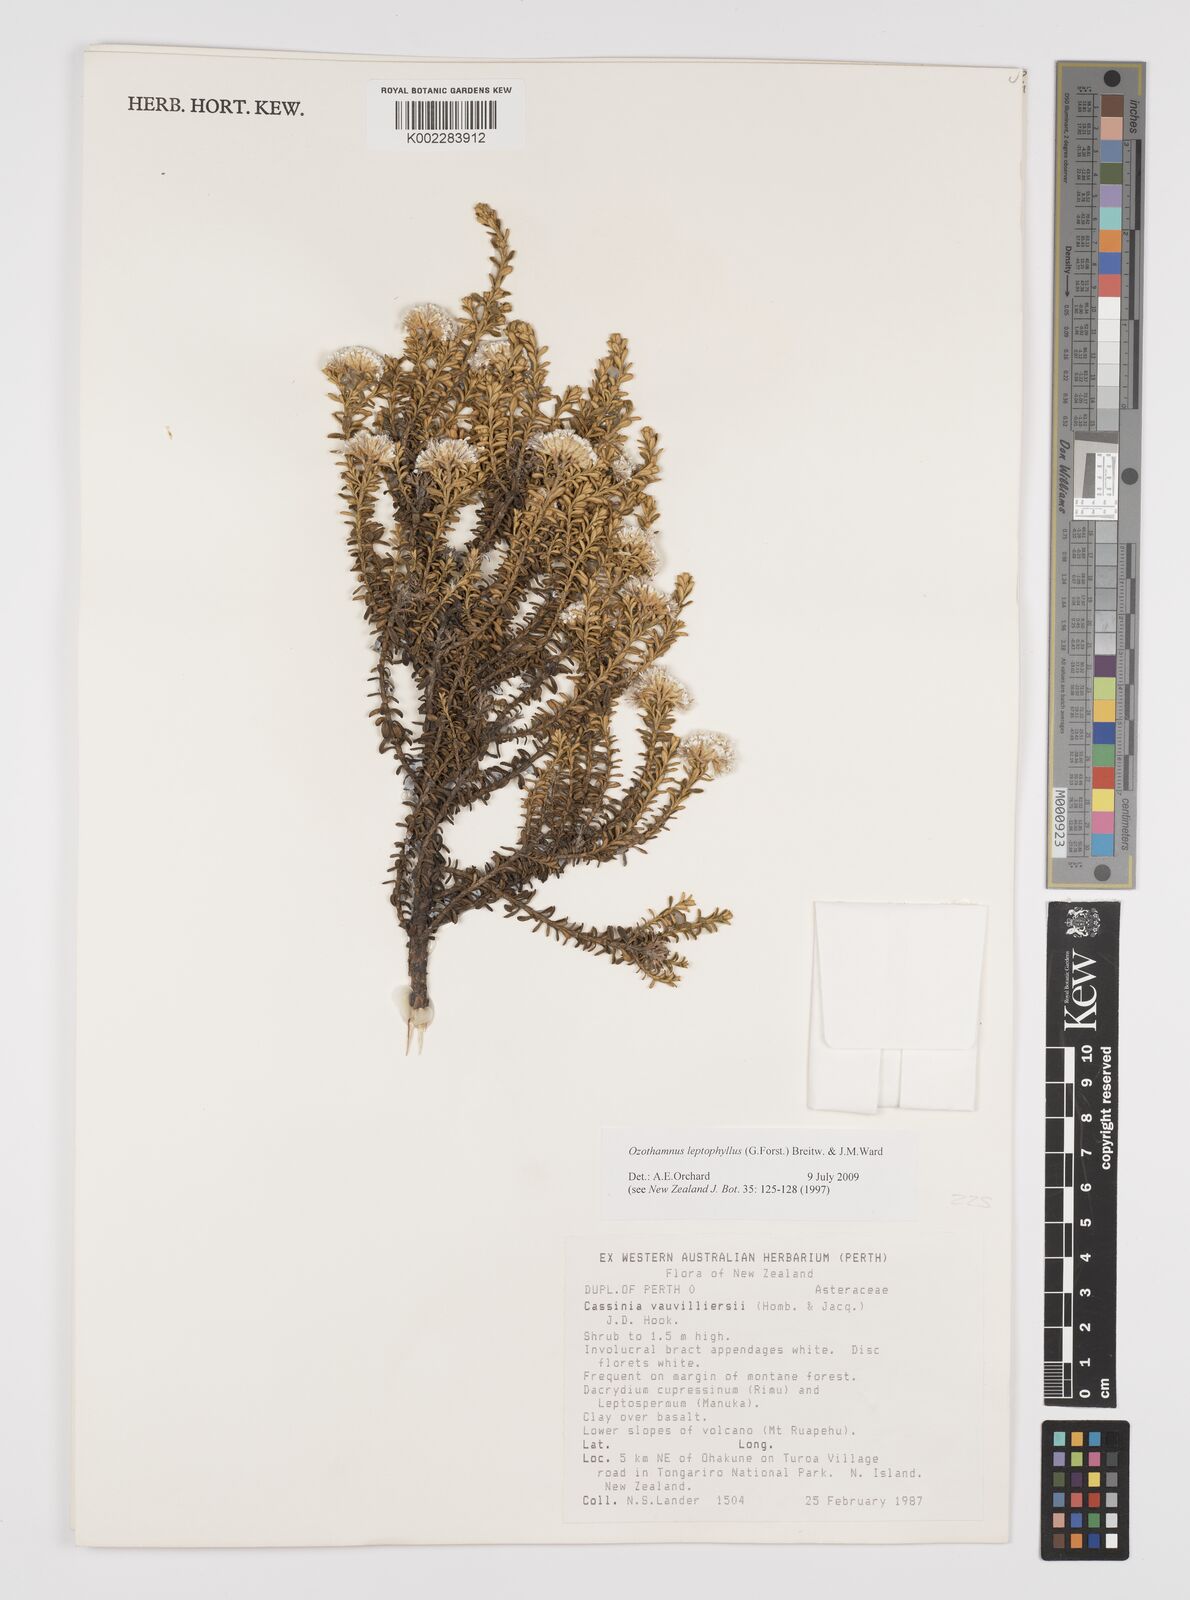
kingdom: Plantae
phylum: Tracheophyta
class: Magnoliopsida
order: Asterales
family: Asteraceae
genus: Ozothamnus
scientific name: Ozothamnus leptophyllus
